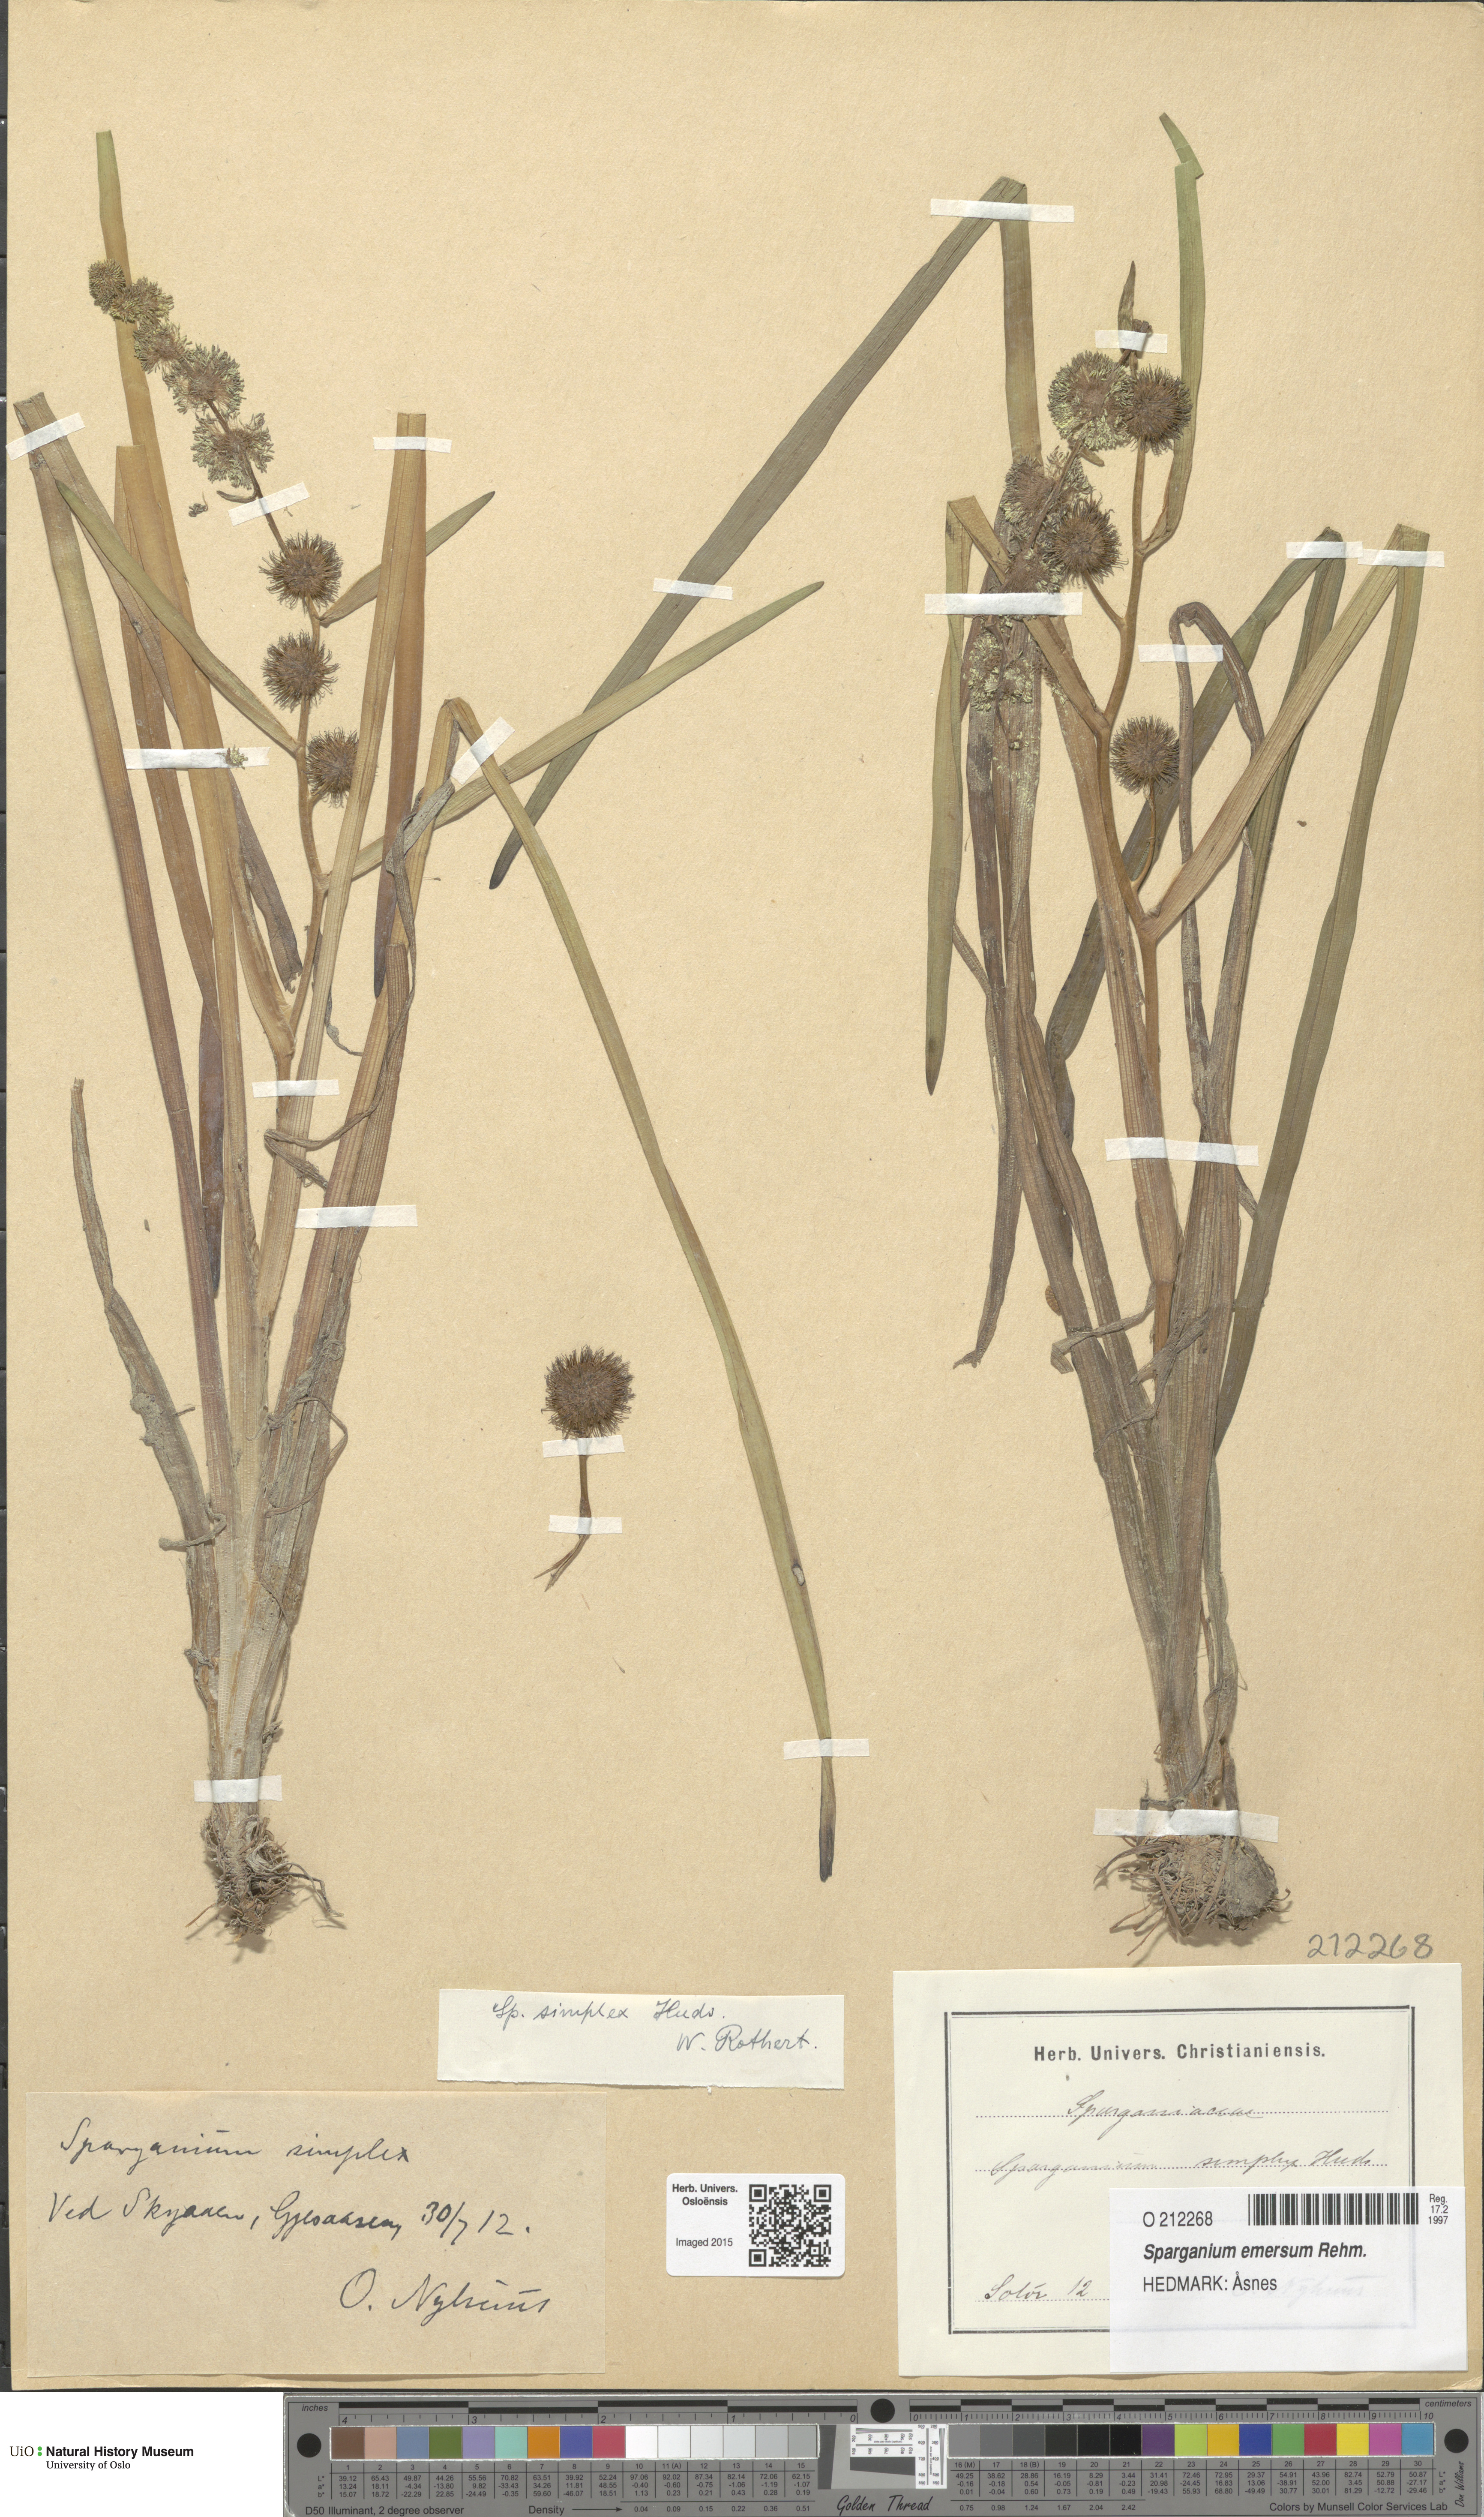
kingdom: Plantae
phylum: Tracheophyta
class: Liliopsida
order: Poales
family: Typhaceae
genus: Sparganium
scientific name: Sparganium emersum
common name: Unbranched bur-reed
